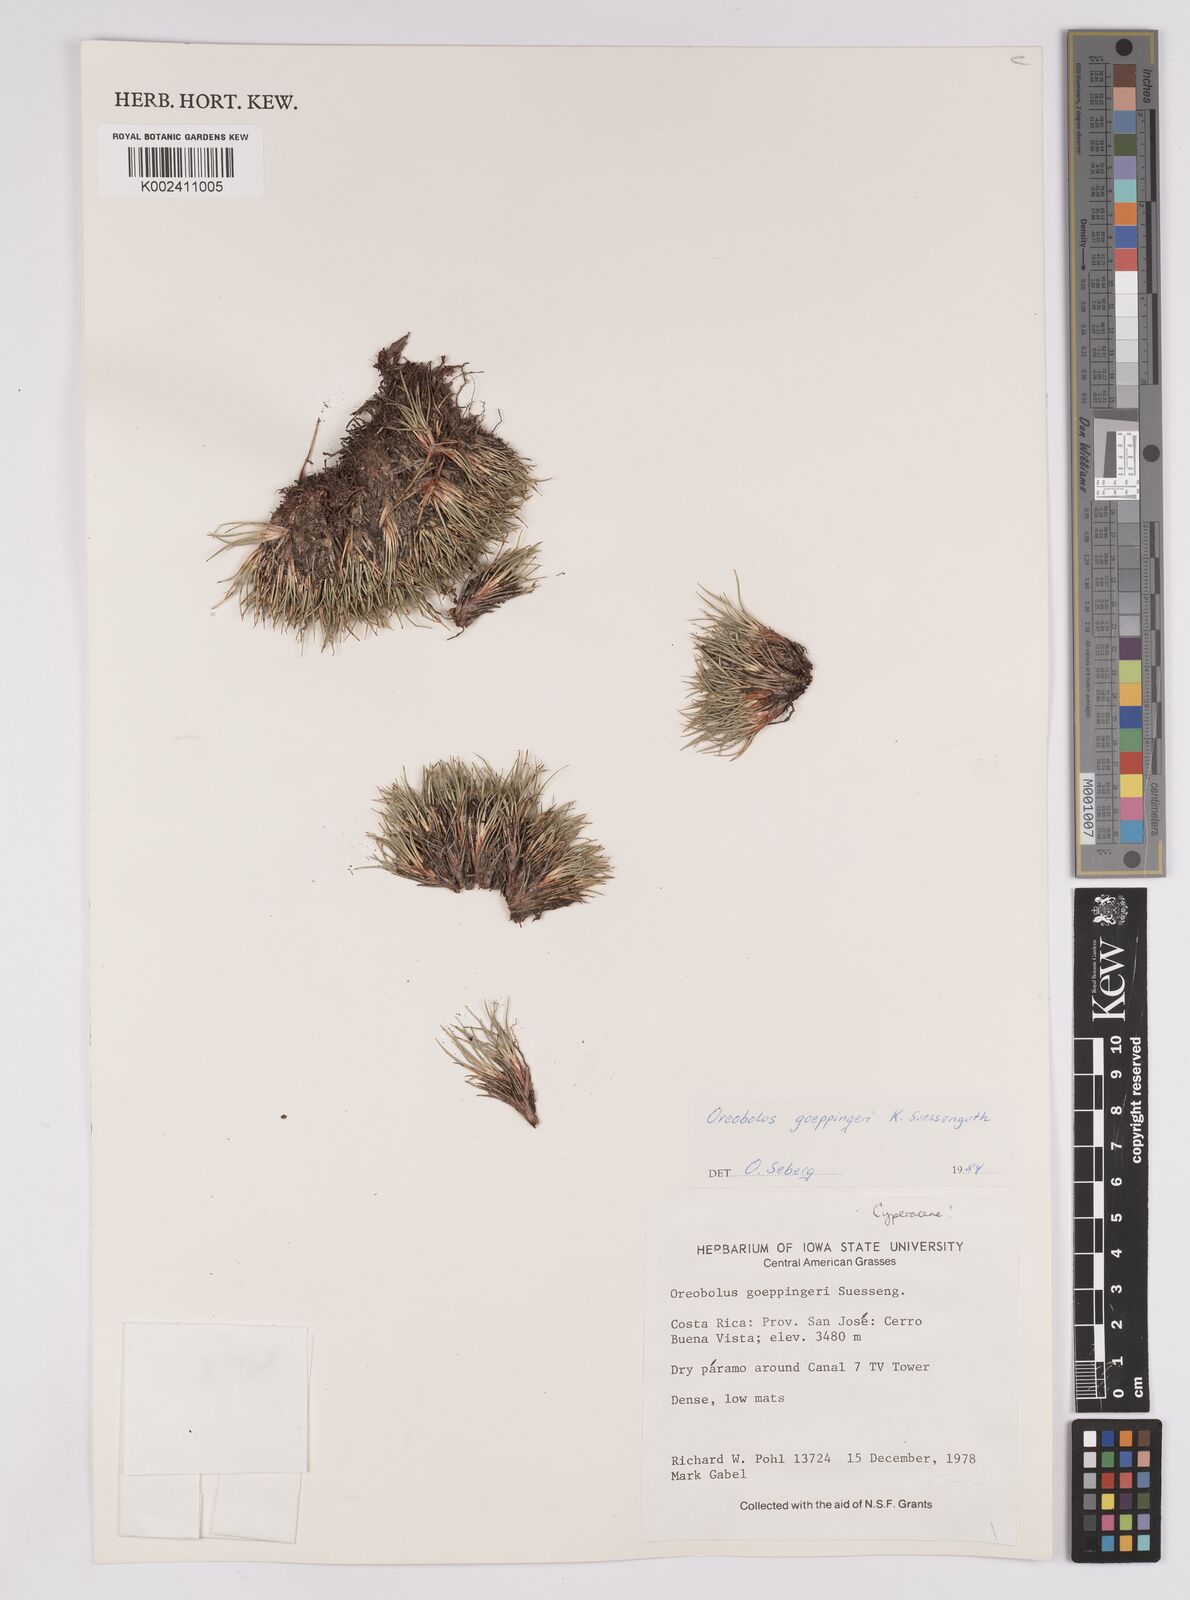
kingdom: Plantae
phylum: Tracheophyta
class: Liliopsida
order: Poales
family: Cyperaceae
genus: Oreobolus
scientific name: Oreobolus goeppingeri
